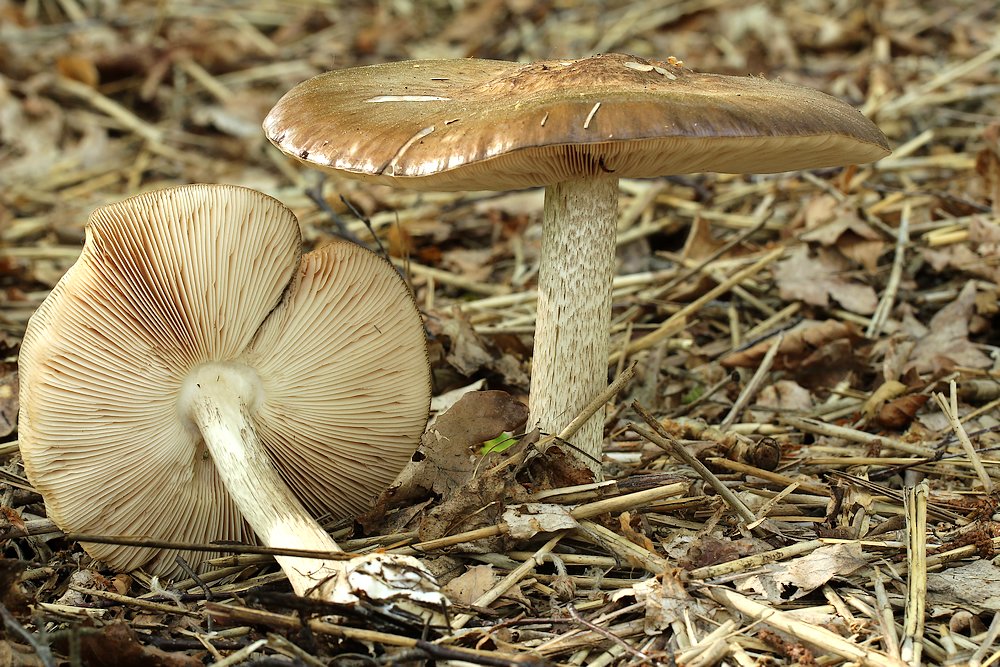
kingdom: Fungi
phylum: Basidiomycota
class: Agaricomycetes
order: Agaricales
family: Pluteaceae
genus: Pluteus
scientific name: Pluteus cervinus
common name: sodfarvet skærmhat
